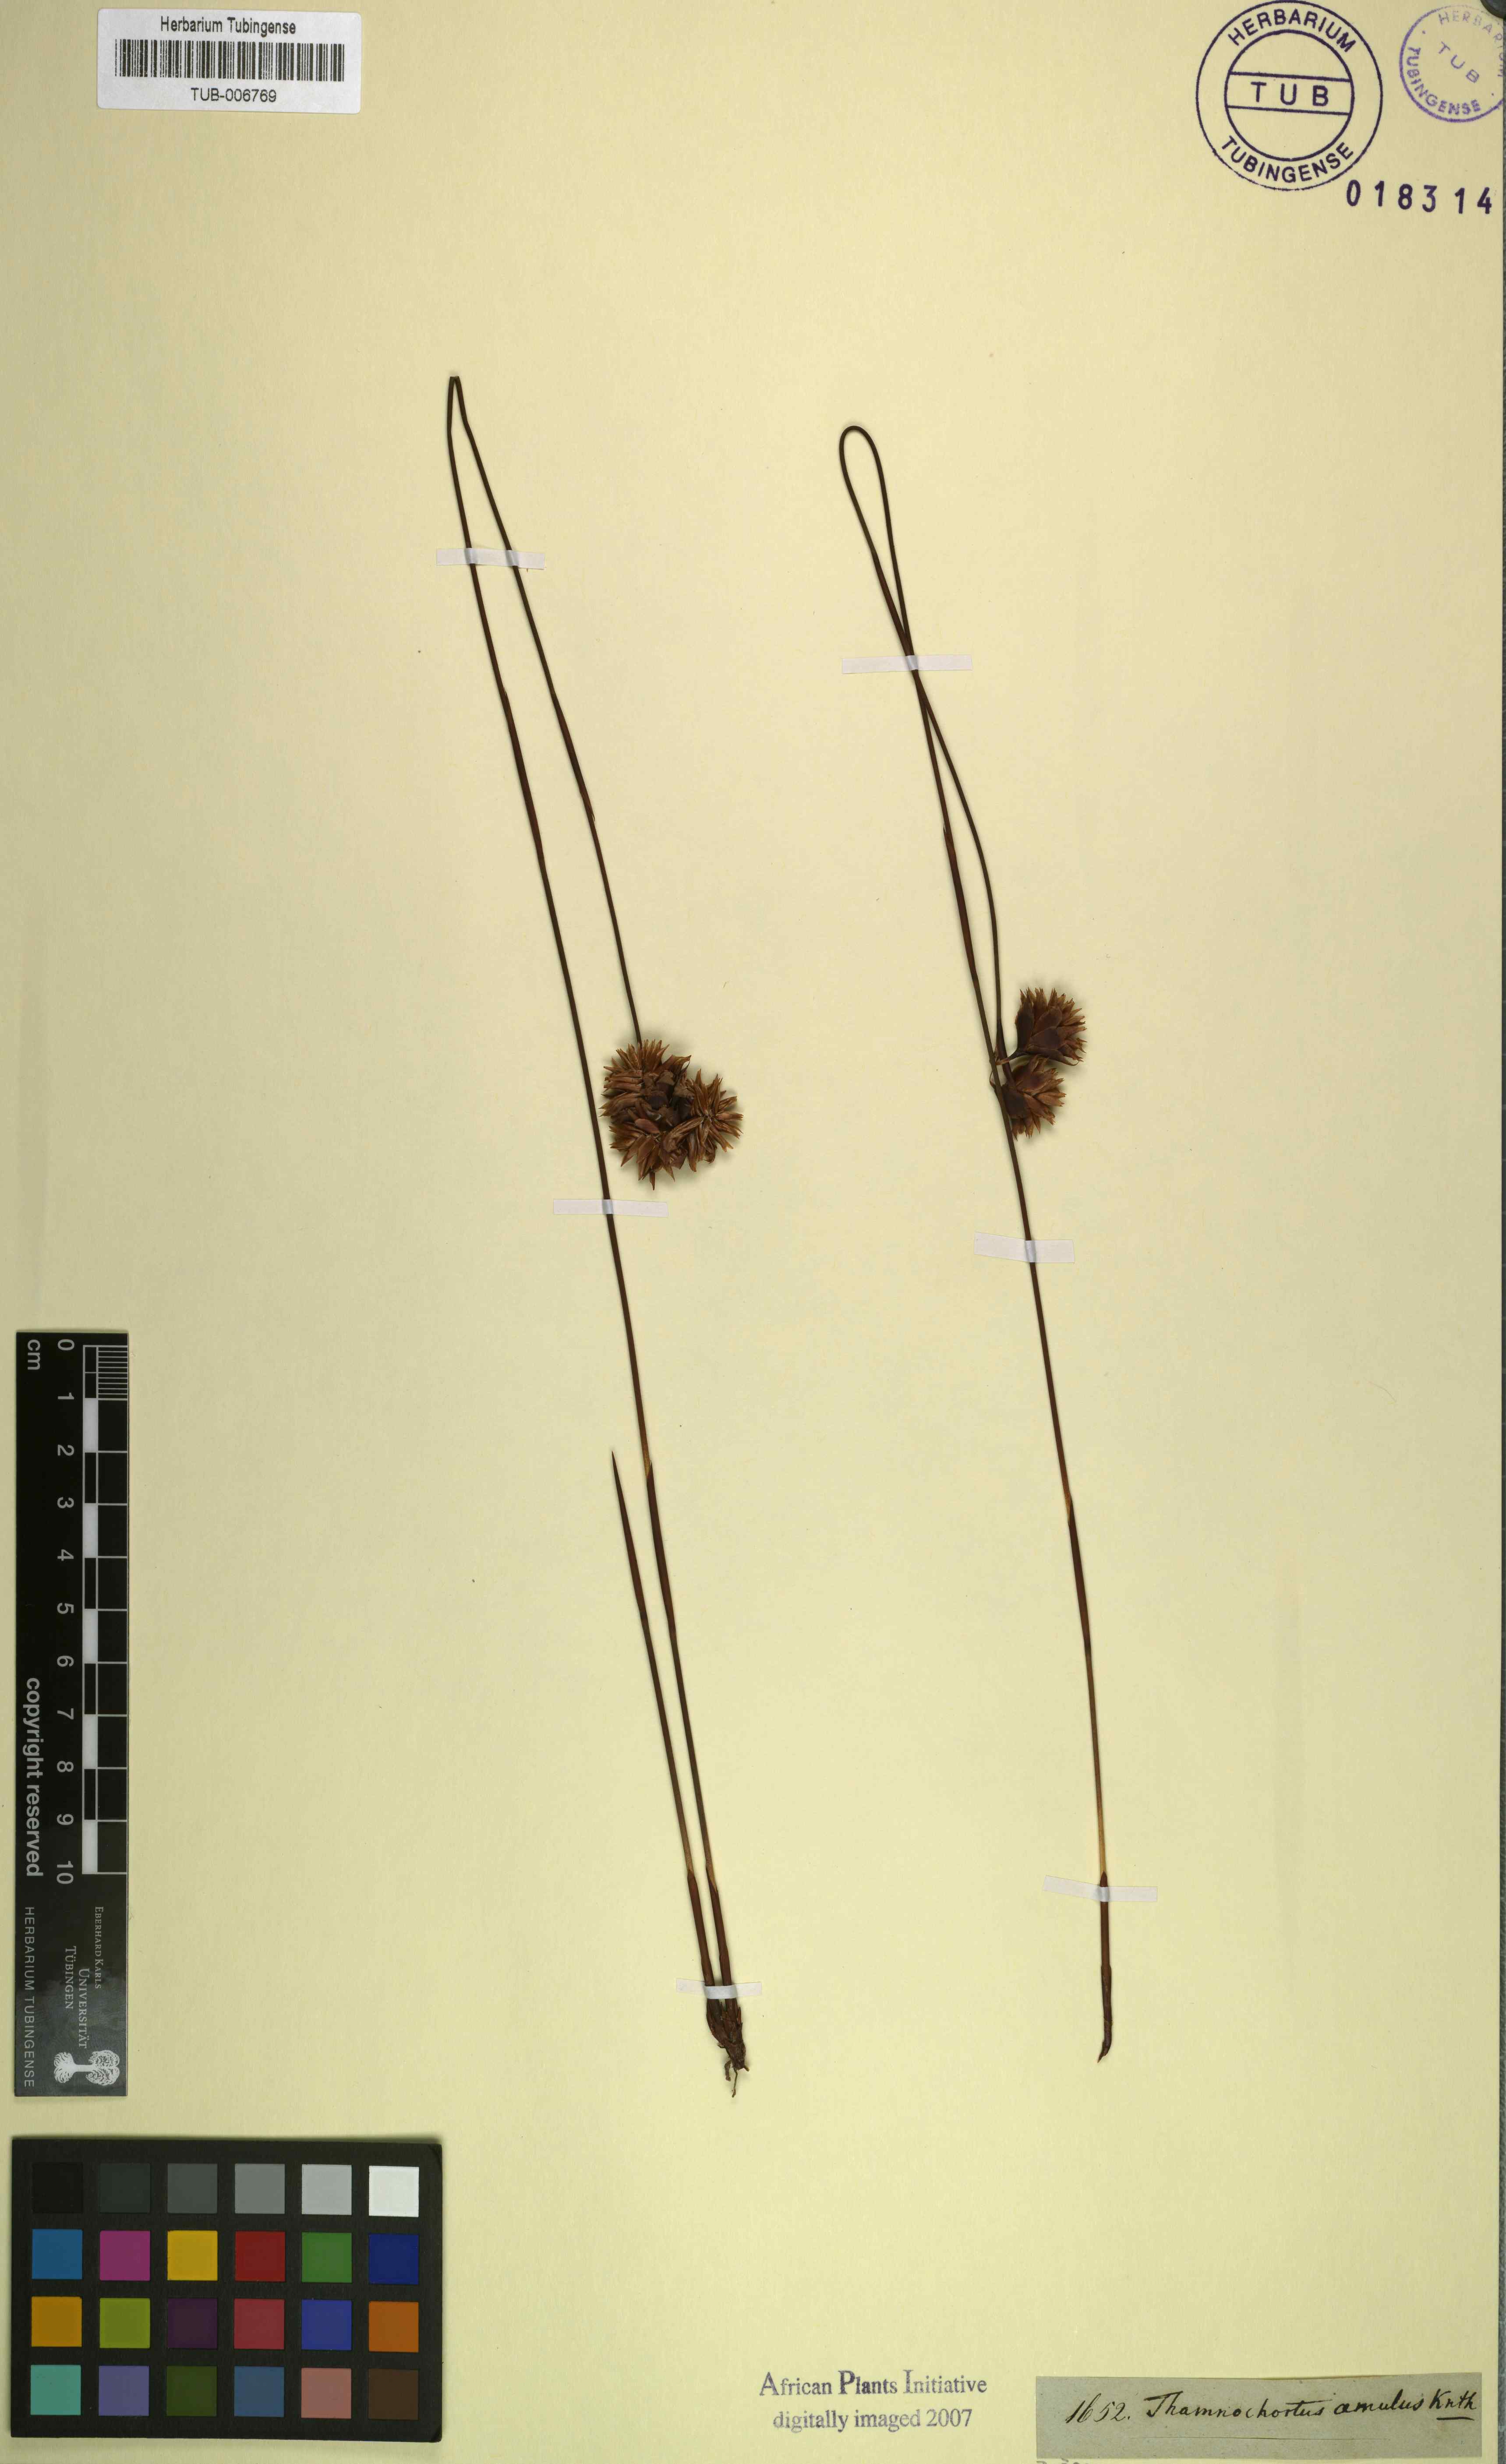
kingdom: Plantae
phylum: Tracheophyta
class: Liliopsida
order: Poales
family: Restionaceae
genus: Staberoha
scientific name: Staberoha distachyos
